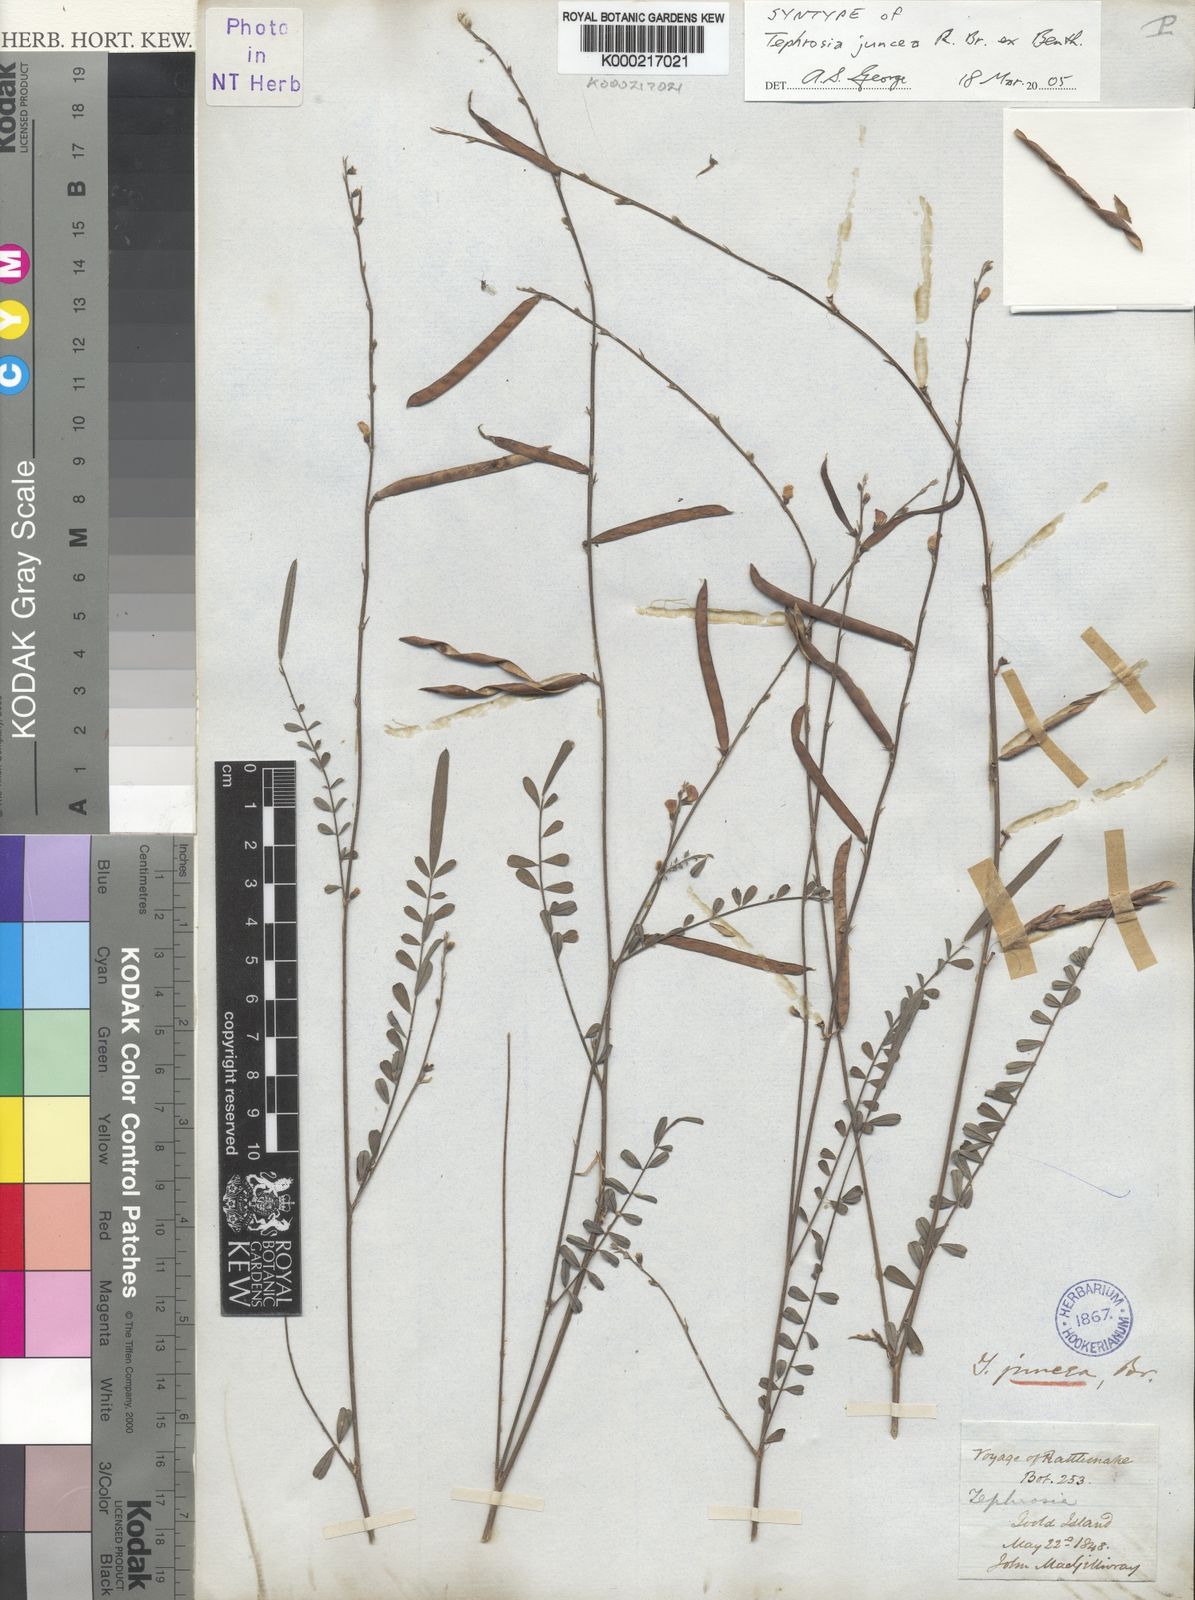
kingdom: Plantae
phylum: Tracheophyta
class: Magnoliopsida
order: Fabales
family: Fabaceae
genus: Tephrosia
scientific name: Tephrosia juncea
